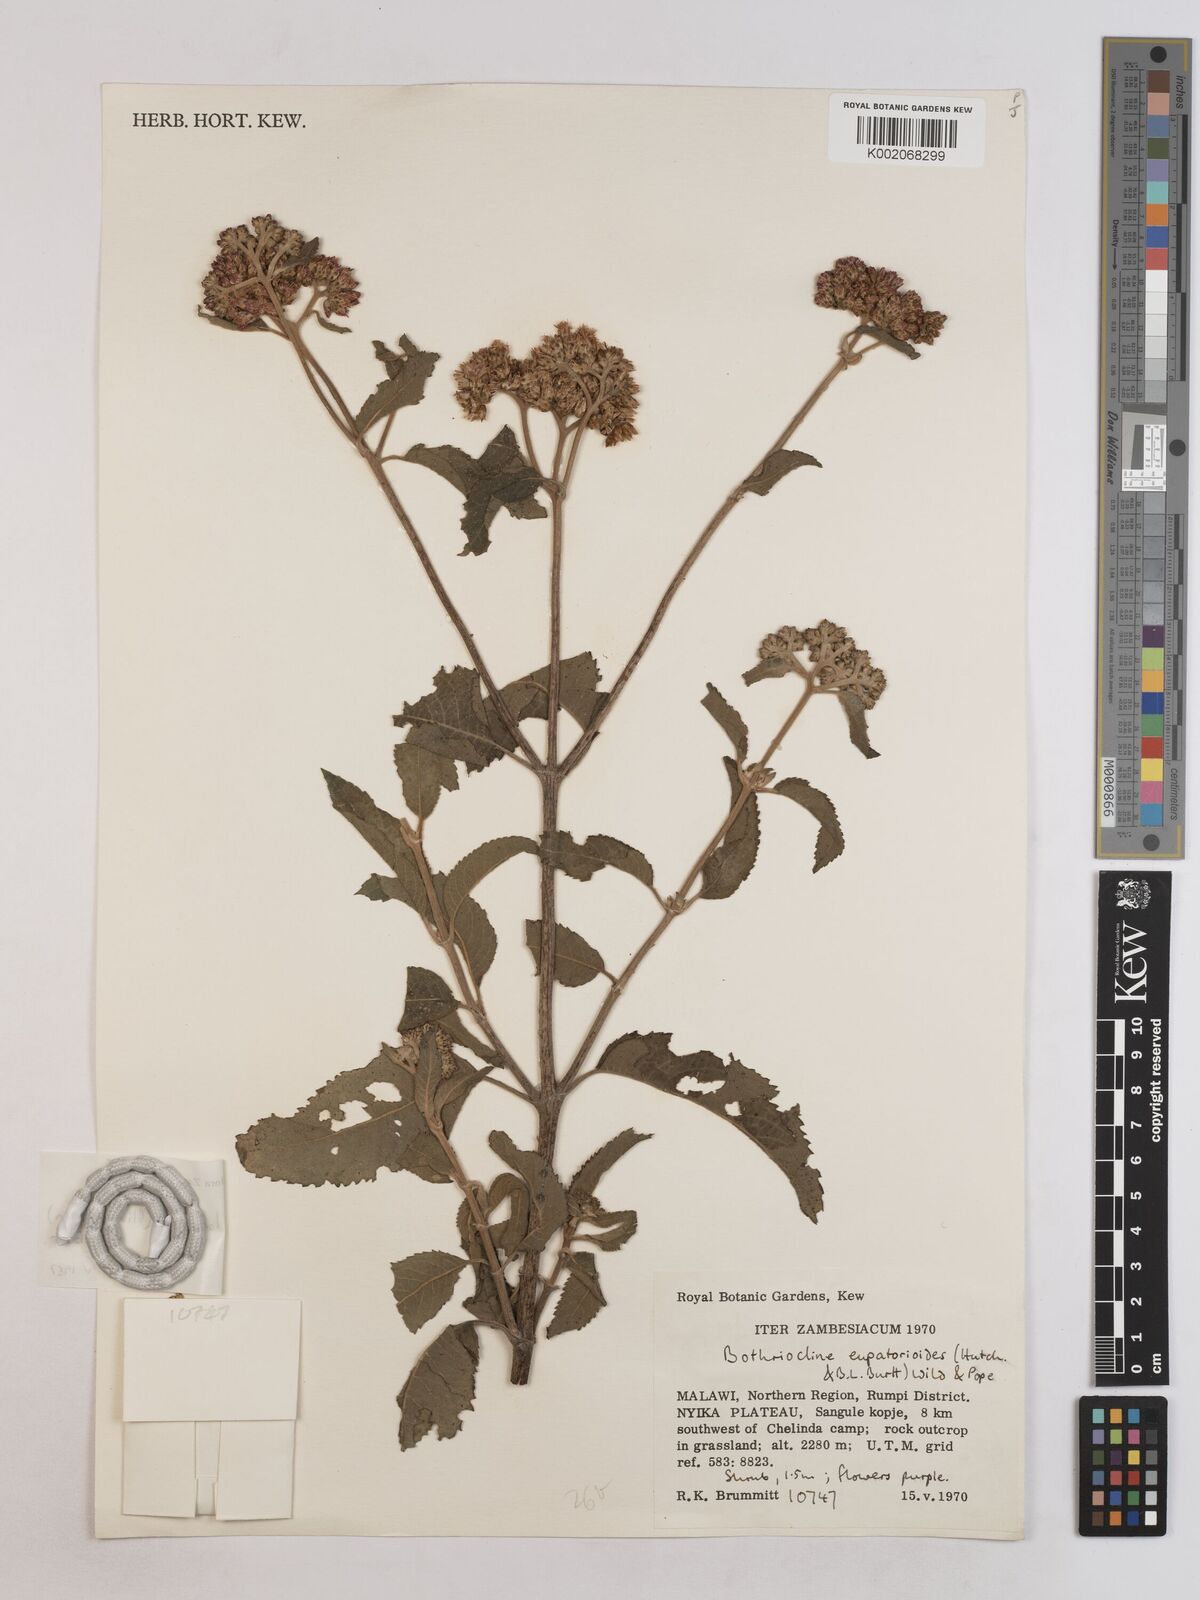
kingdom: Plantae
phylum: Tracheophyta
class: Magnoliopsida
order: Asterales
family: Asteraceae
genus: Bothriocline
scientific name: Bothriocline longipes
